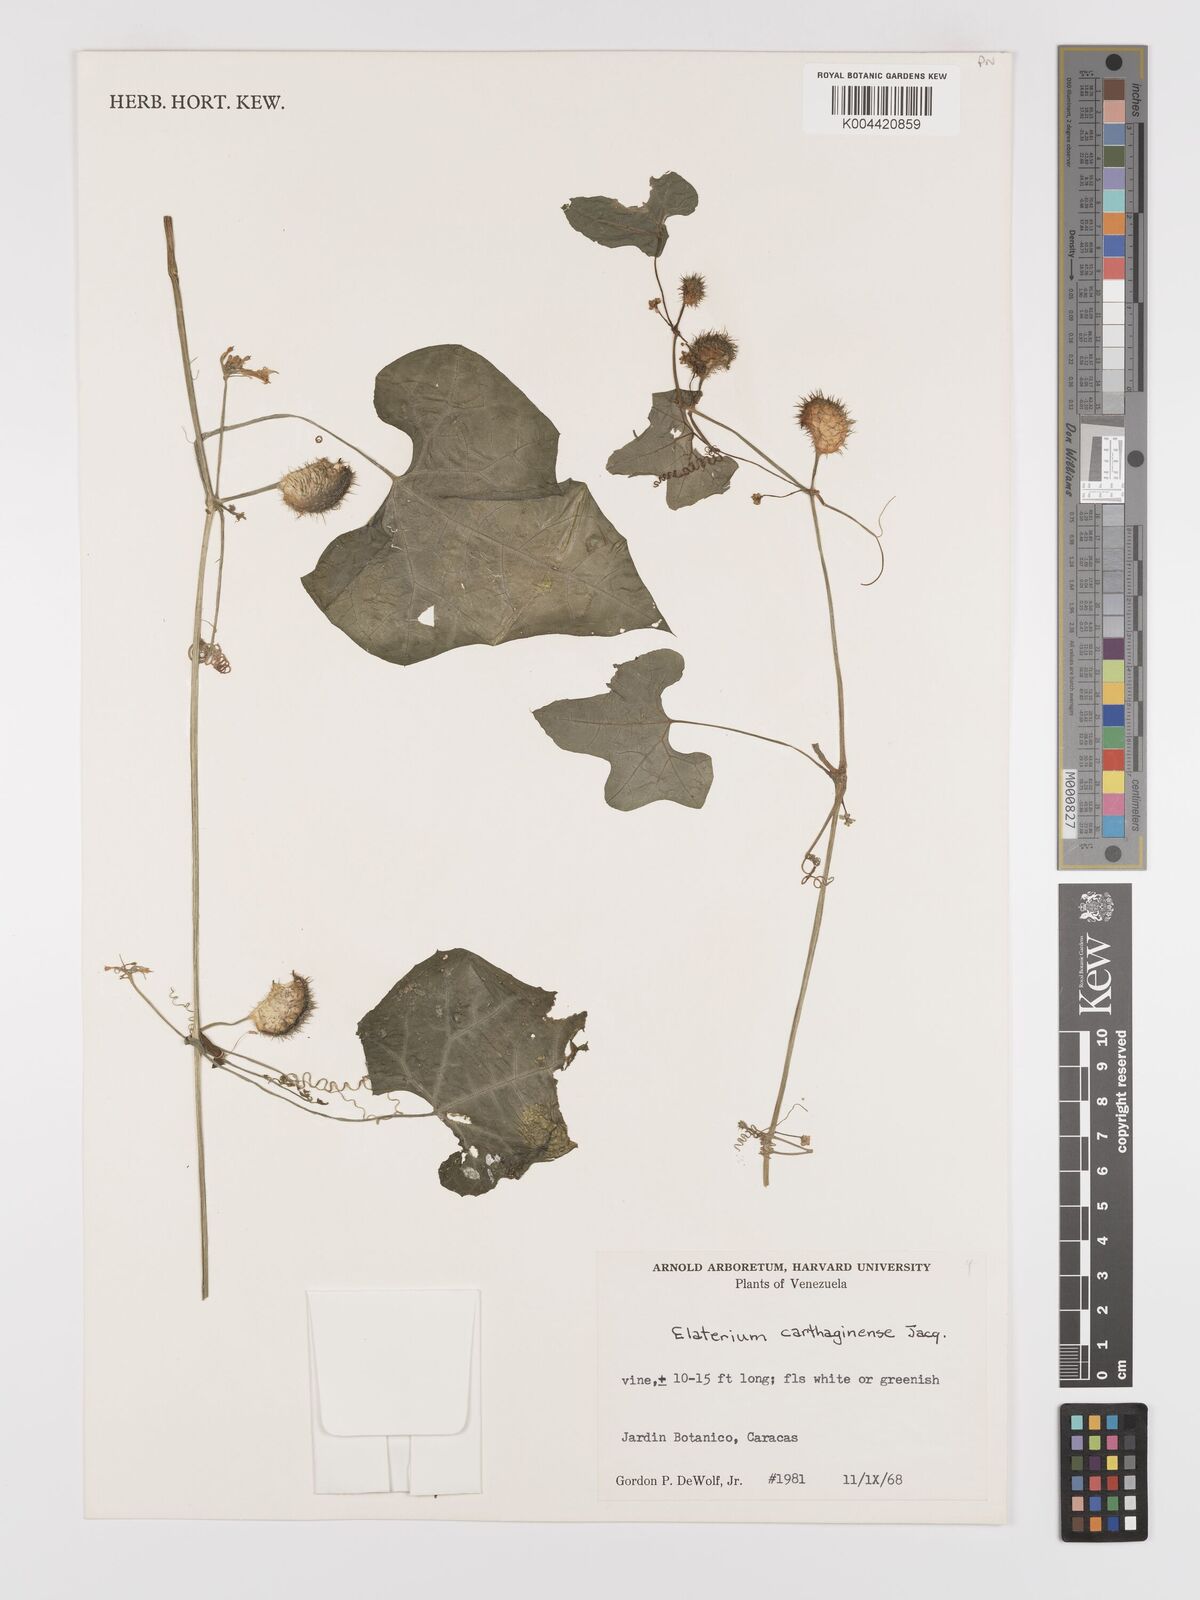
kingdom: Plantae
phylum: Tracheophyta
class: Magnoliopsida
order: Cucurbitales
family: Cucurbitaceae
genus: Cyclanthera
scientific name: Cyclanthera carthagenensis
